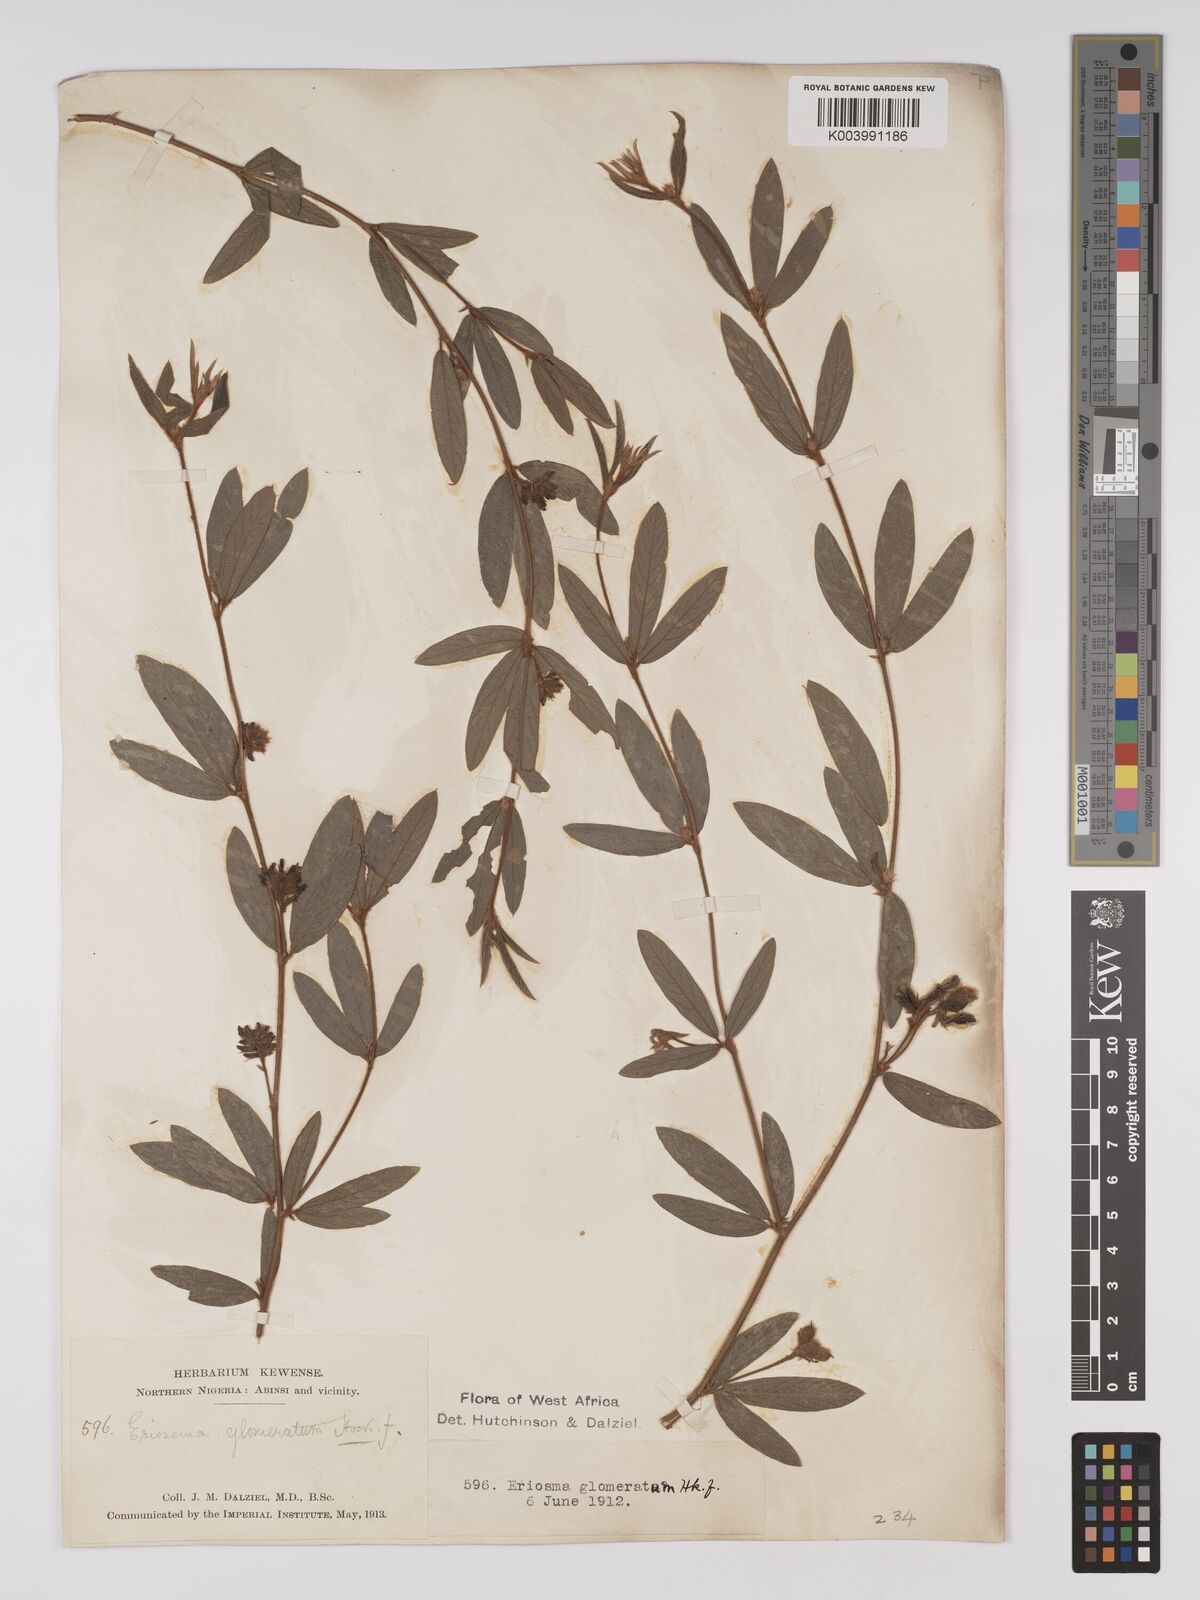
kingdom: Plantae
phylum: Tracheophyta
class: Magnoliopsida
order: Fabales
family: Fabaceae
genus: Eriosema
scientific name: Eriosema glomeratum
